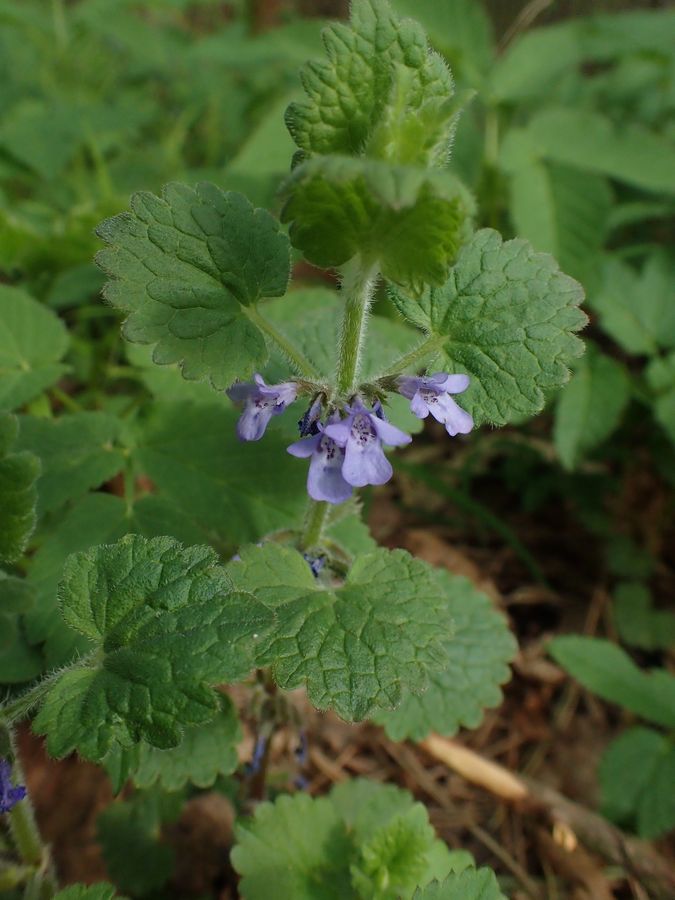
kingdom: Plantae
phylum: Tracheophyta
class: Magnoliopsida
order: Lamiales
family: Lamiaceae
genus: Glechoma
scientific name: Glechoma hederacea
